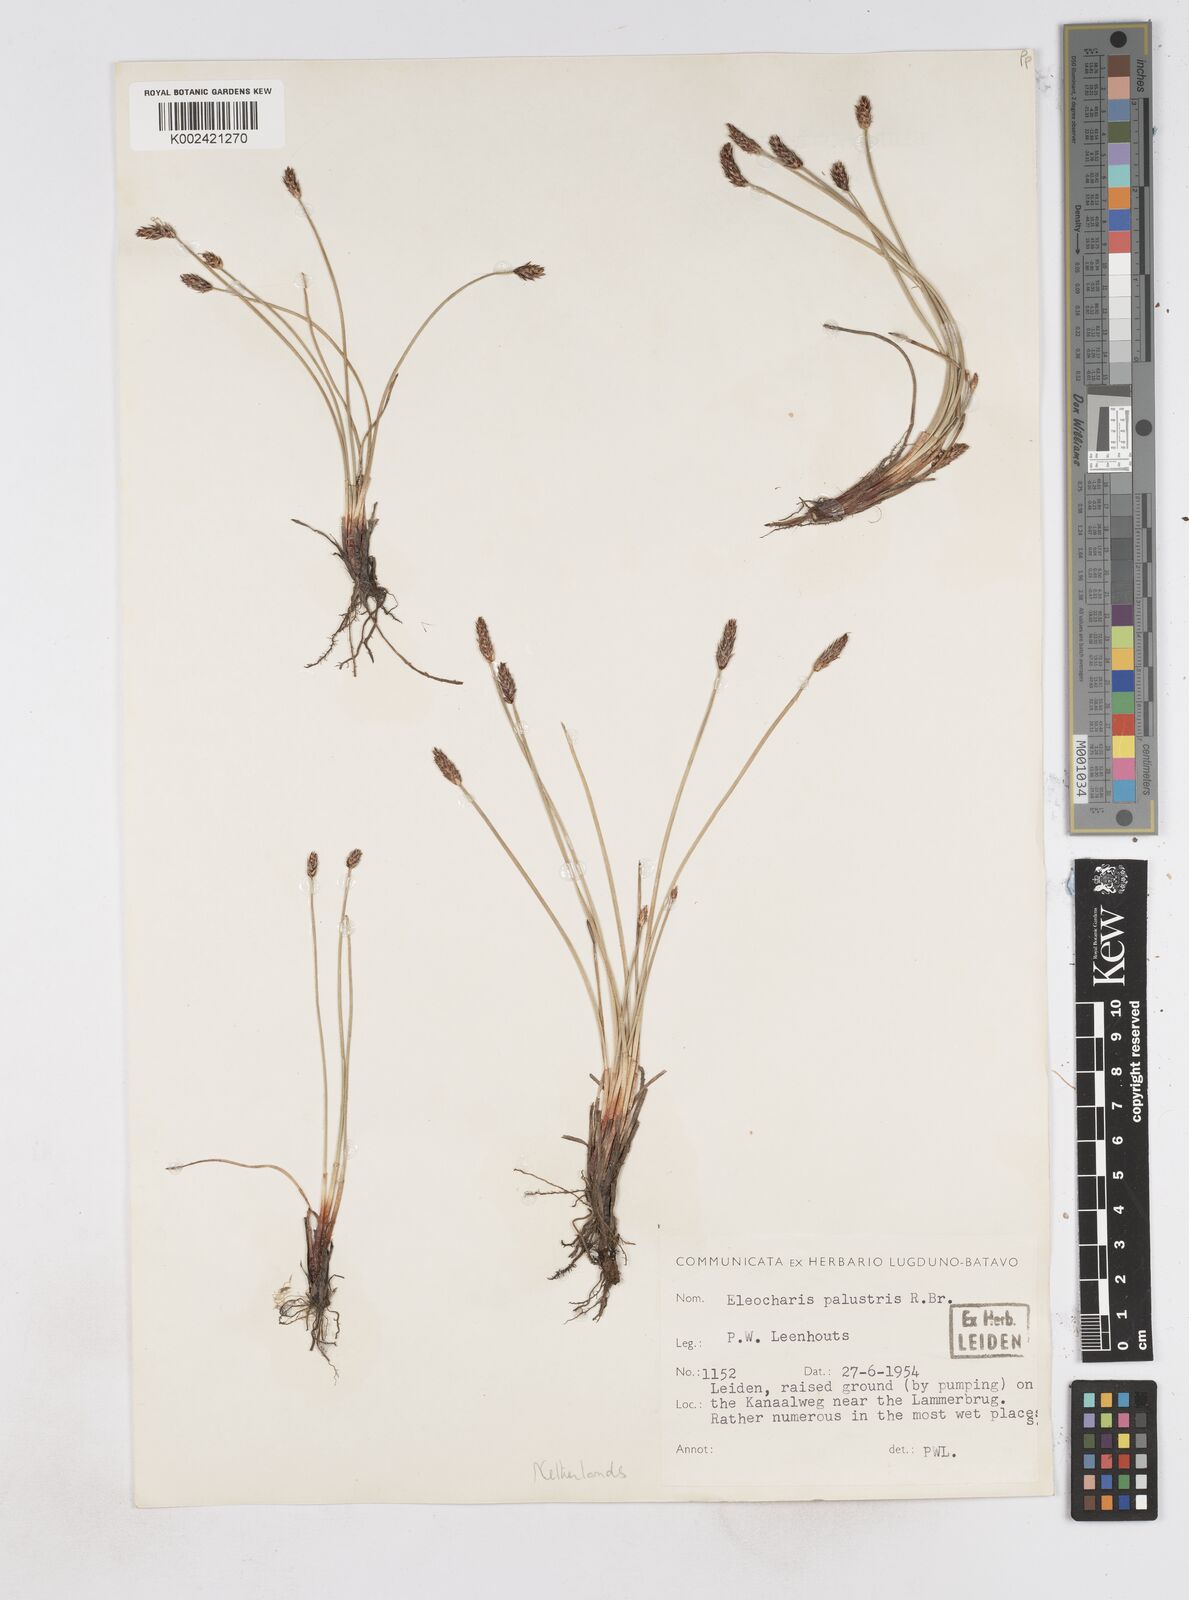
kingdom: Plantae
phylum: Tracheophyta
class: Liliopsida
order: Poales
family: Cyperaceae
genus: Eleocharis
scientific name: Eleocharis palustris
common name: Common spike-rush
